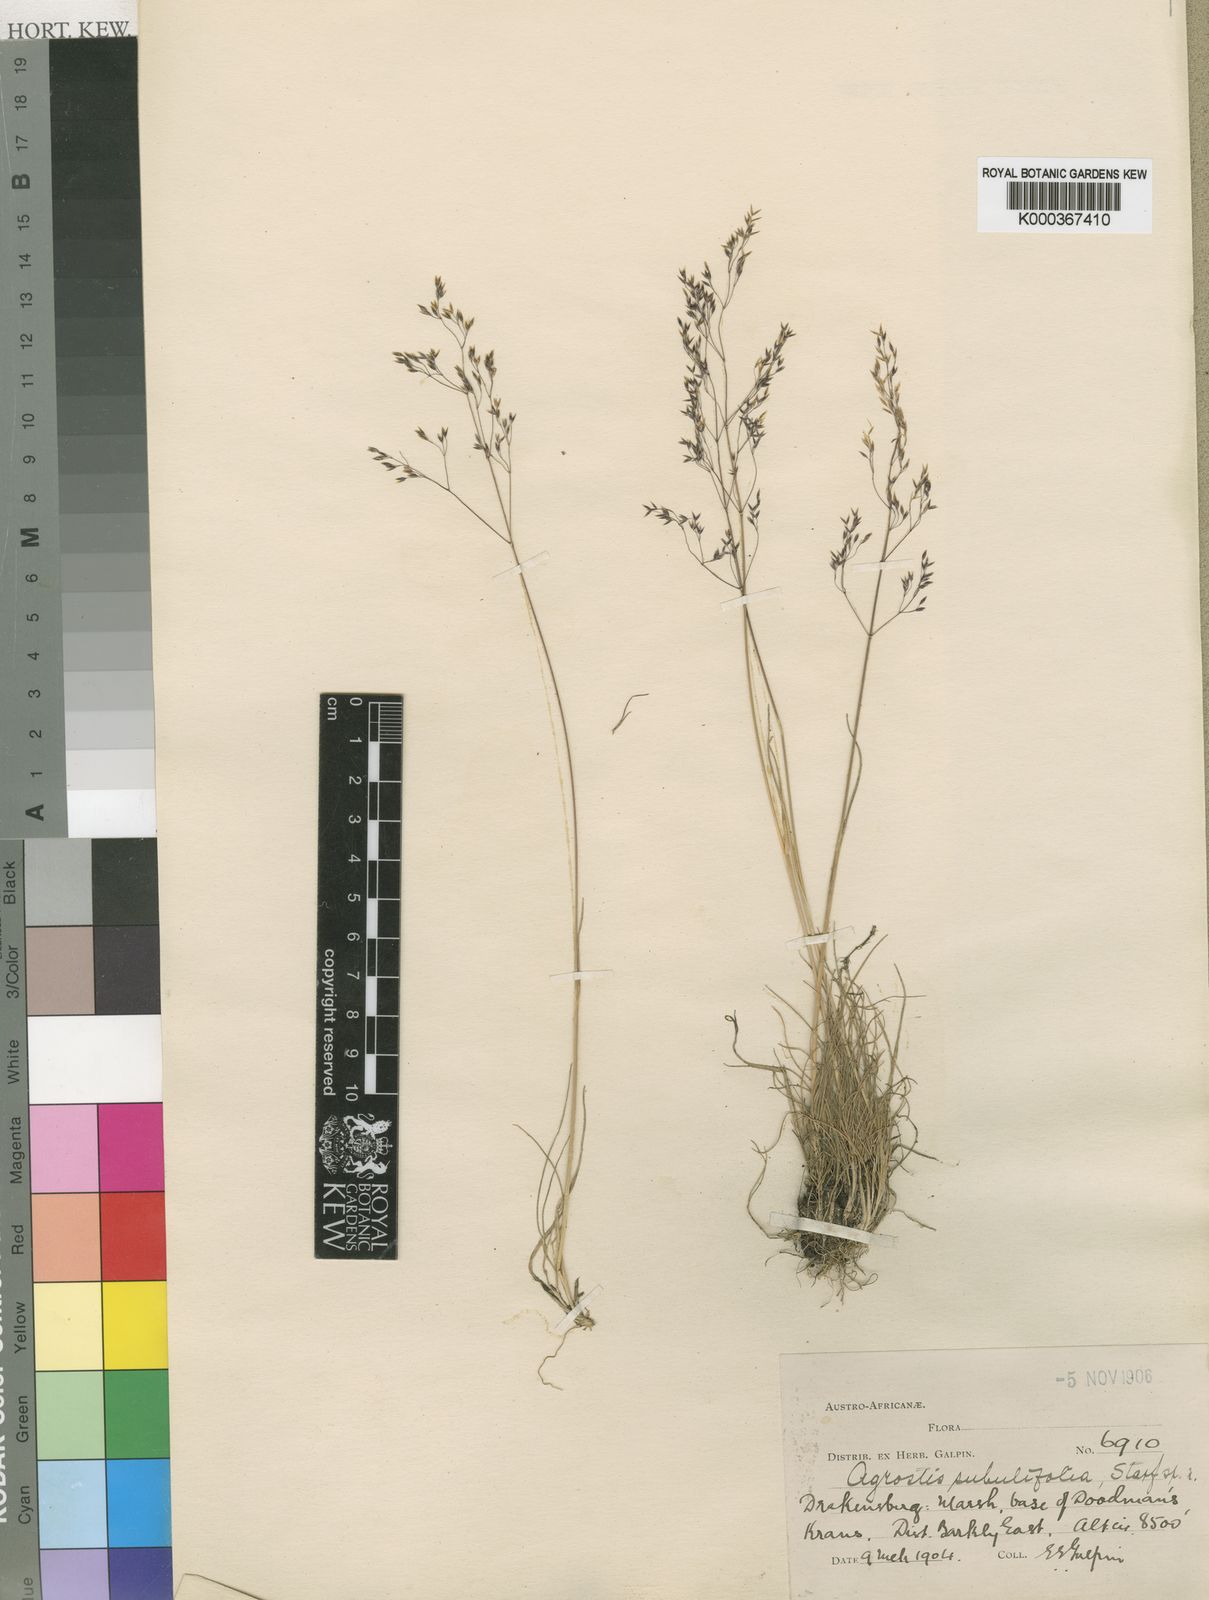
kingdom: Plantae
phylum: Tracheophyta
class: Liliopsida
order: Poales
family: Poaceae
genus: Agrostis
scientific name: Agrostis subulifolia
